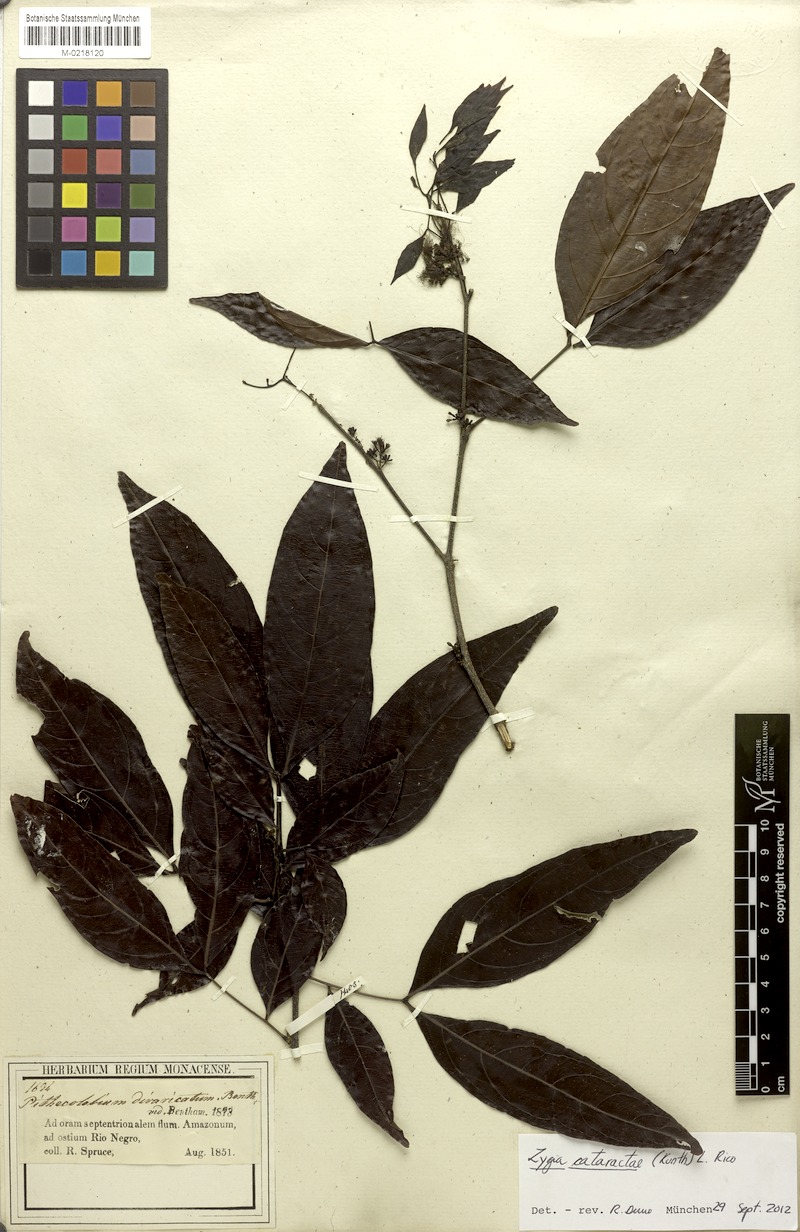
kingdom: Plantae
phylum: Tracheophyta
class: Magnoliopsida
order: Fabales
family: Fabaceae
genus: Zygia
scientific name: Zygia cataractae
